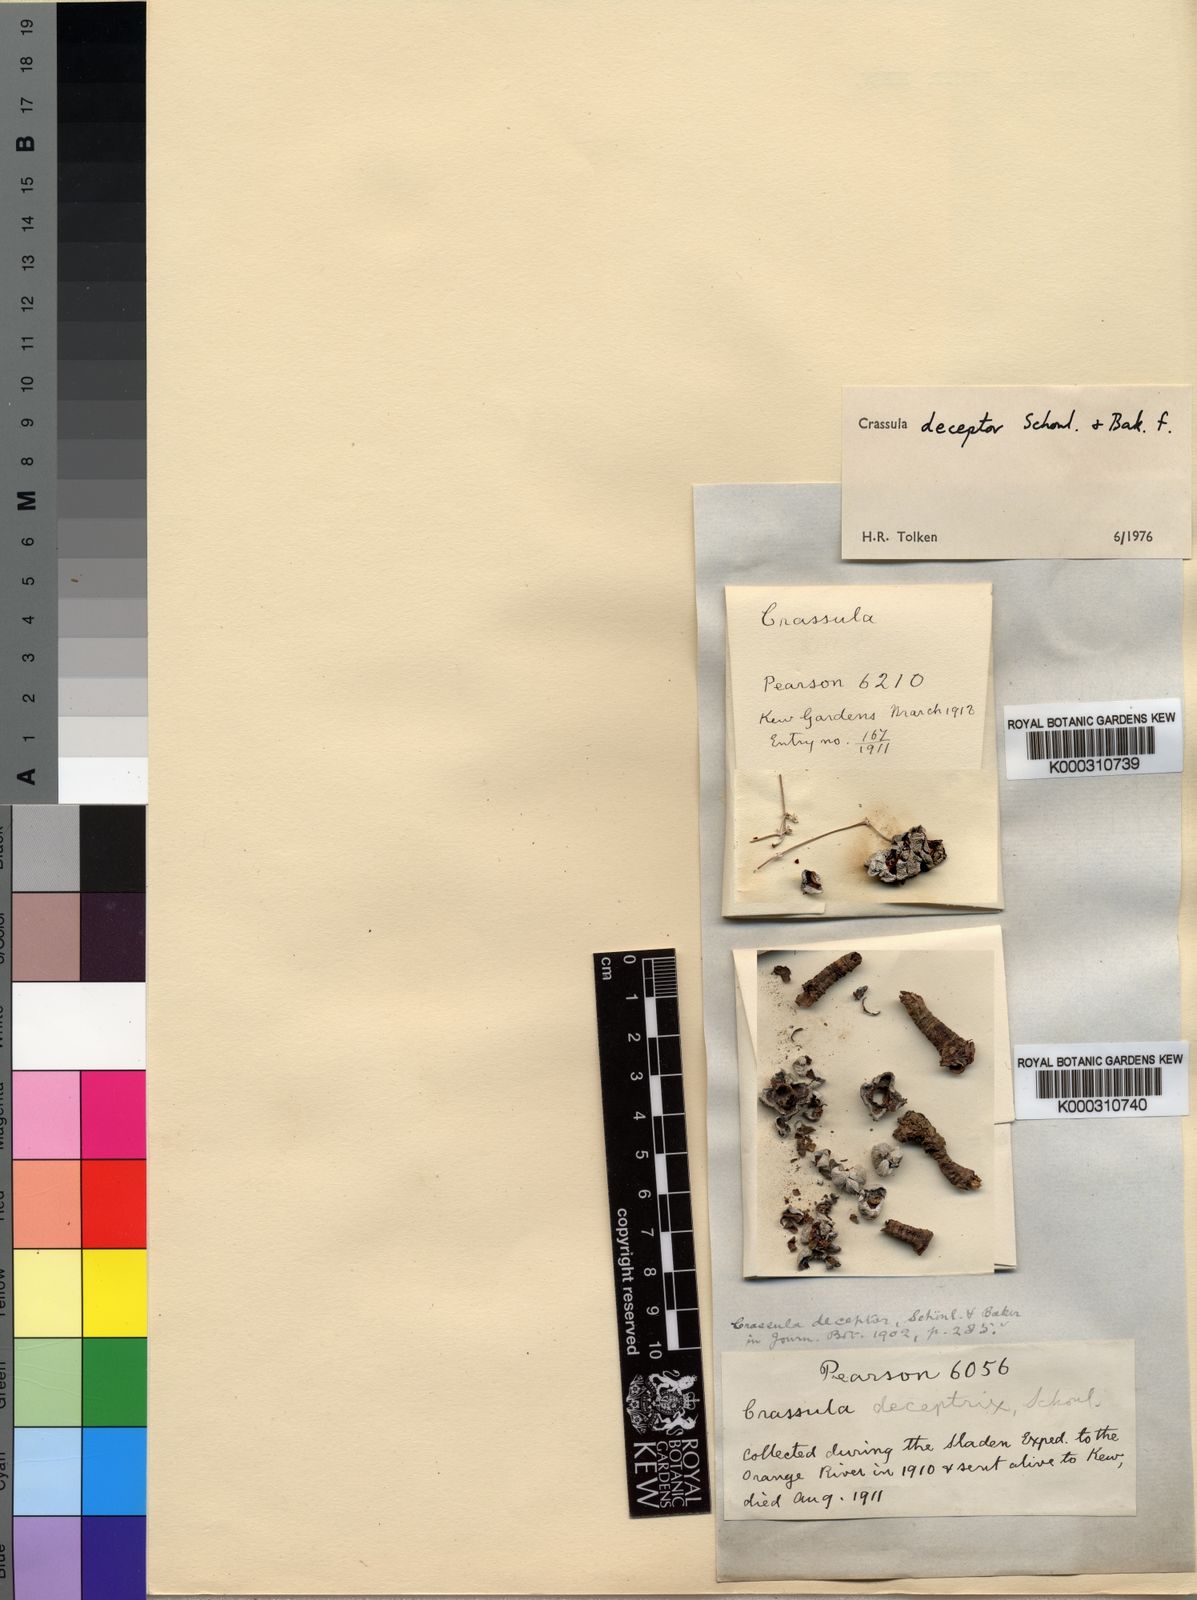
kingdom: Plantae
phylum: Tracheophyta
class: Magnoliopsida
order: Saxifragales
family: Crassulaceae
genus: Crassula
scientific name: Crassula
